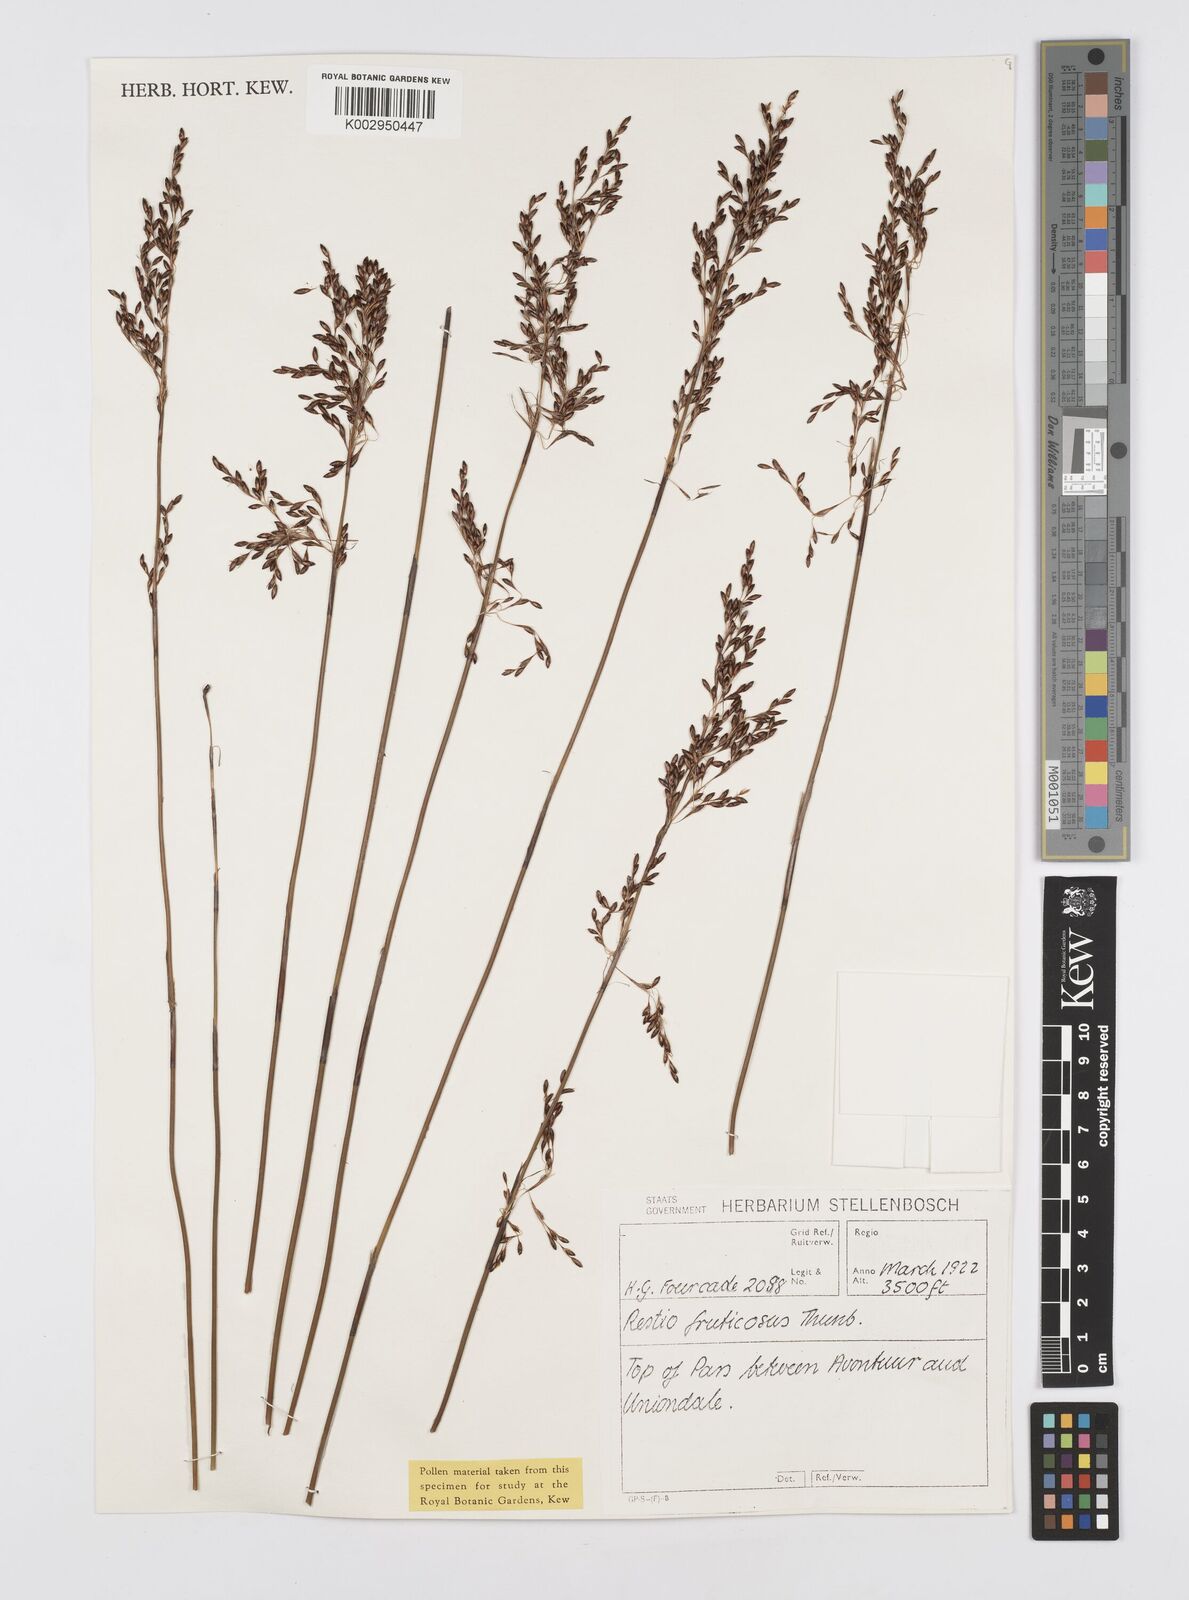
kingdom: Plantae
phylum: Tracheophyta
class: Liliopsida
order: Poales
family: Restionaceae
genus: Rhodocoma
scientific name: Rhodocoma fruticosa
